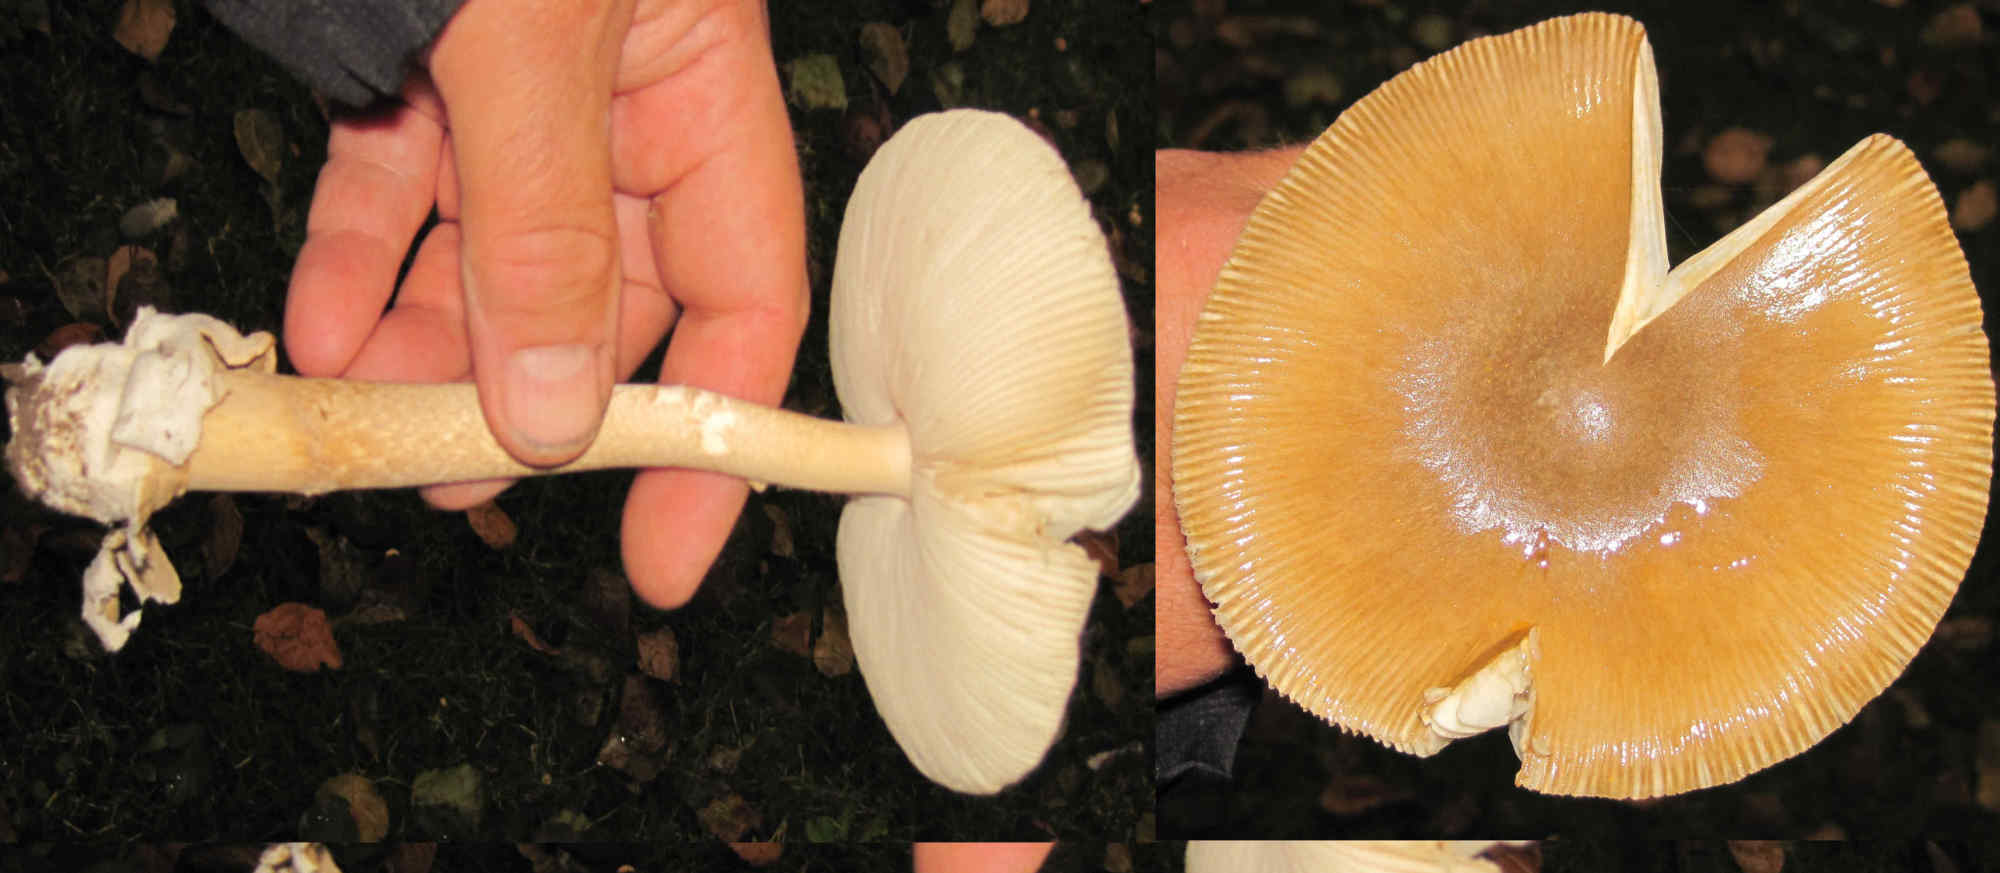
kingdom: Fungi
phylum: Basidiomycota
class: Agaricomycetes
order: Agaricales
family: Amanitaceae
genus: Amanita
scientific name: Amanita crocea
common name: gylden kam-fluesvamp
